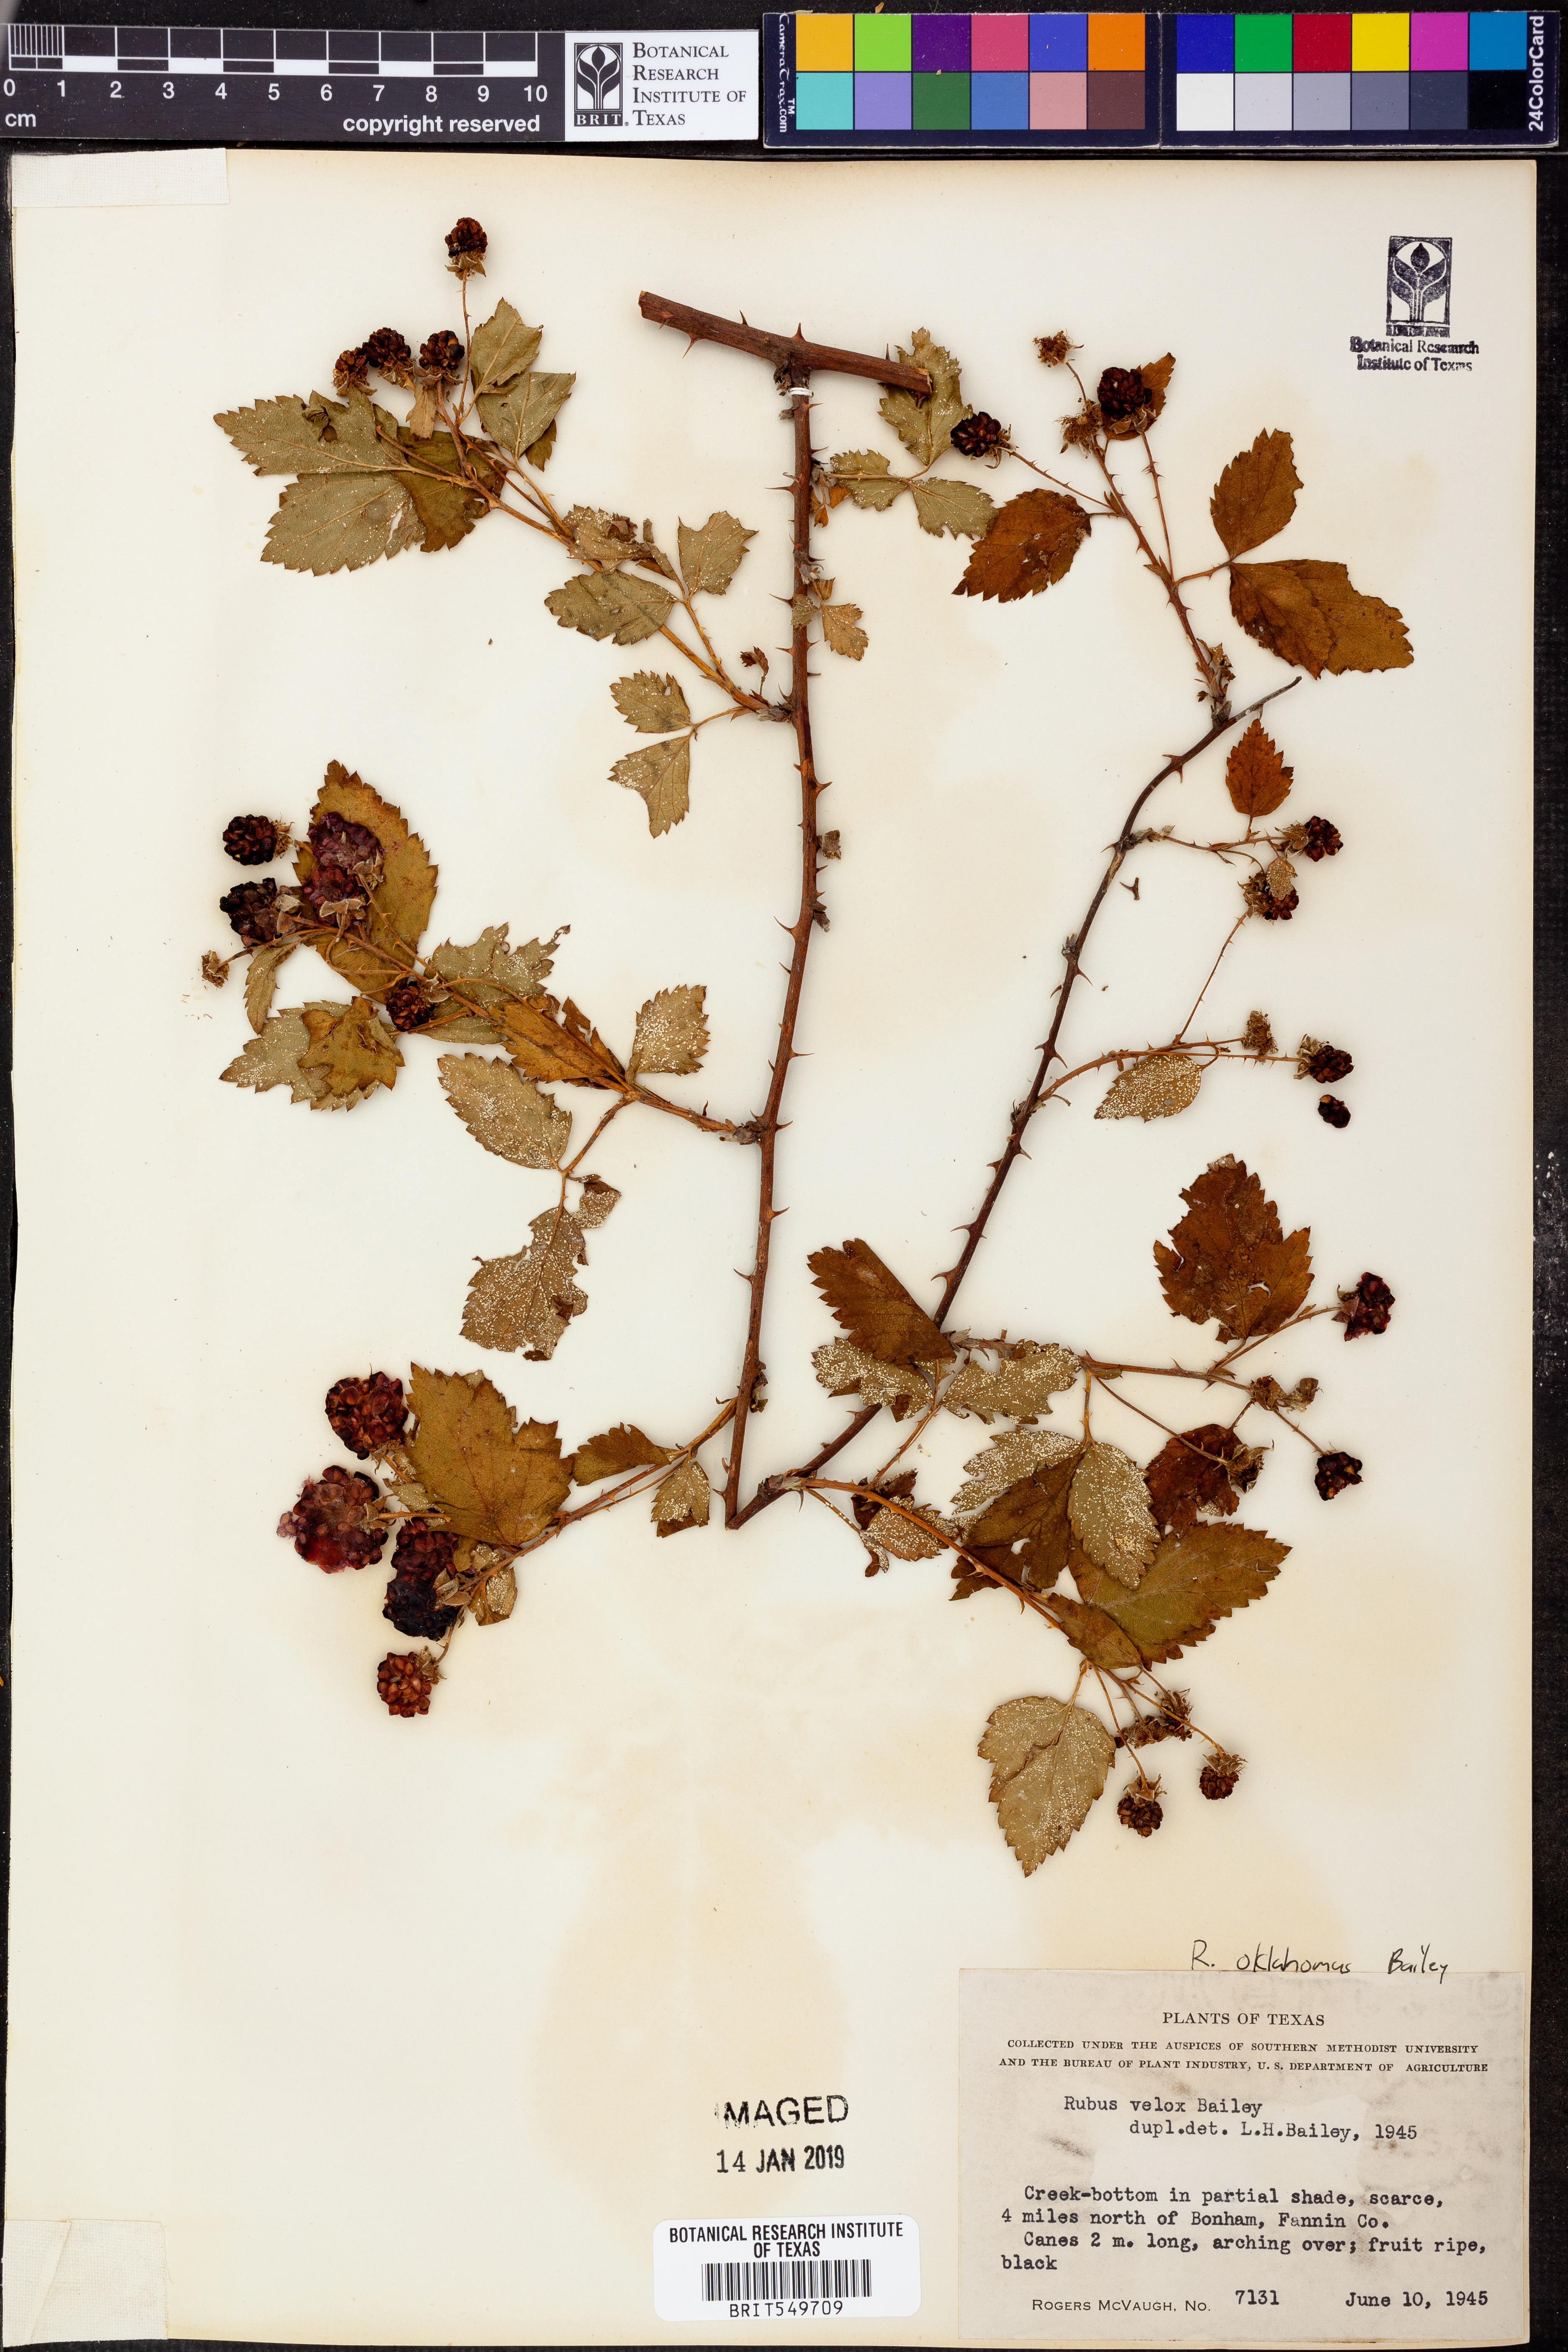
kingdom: Plantae
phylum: Tracheophyta
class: Magnoliopsida
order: Rosales
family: Rosaceae
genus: Rubus
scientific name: Rubus oklahomus
